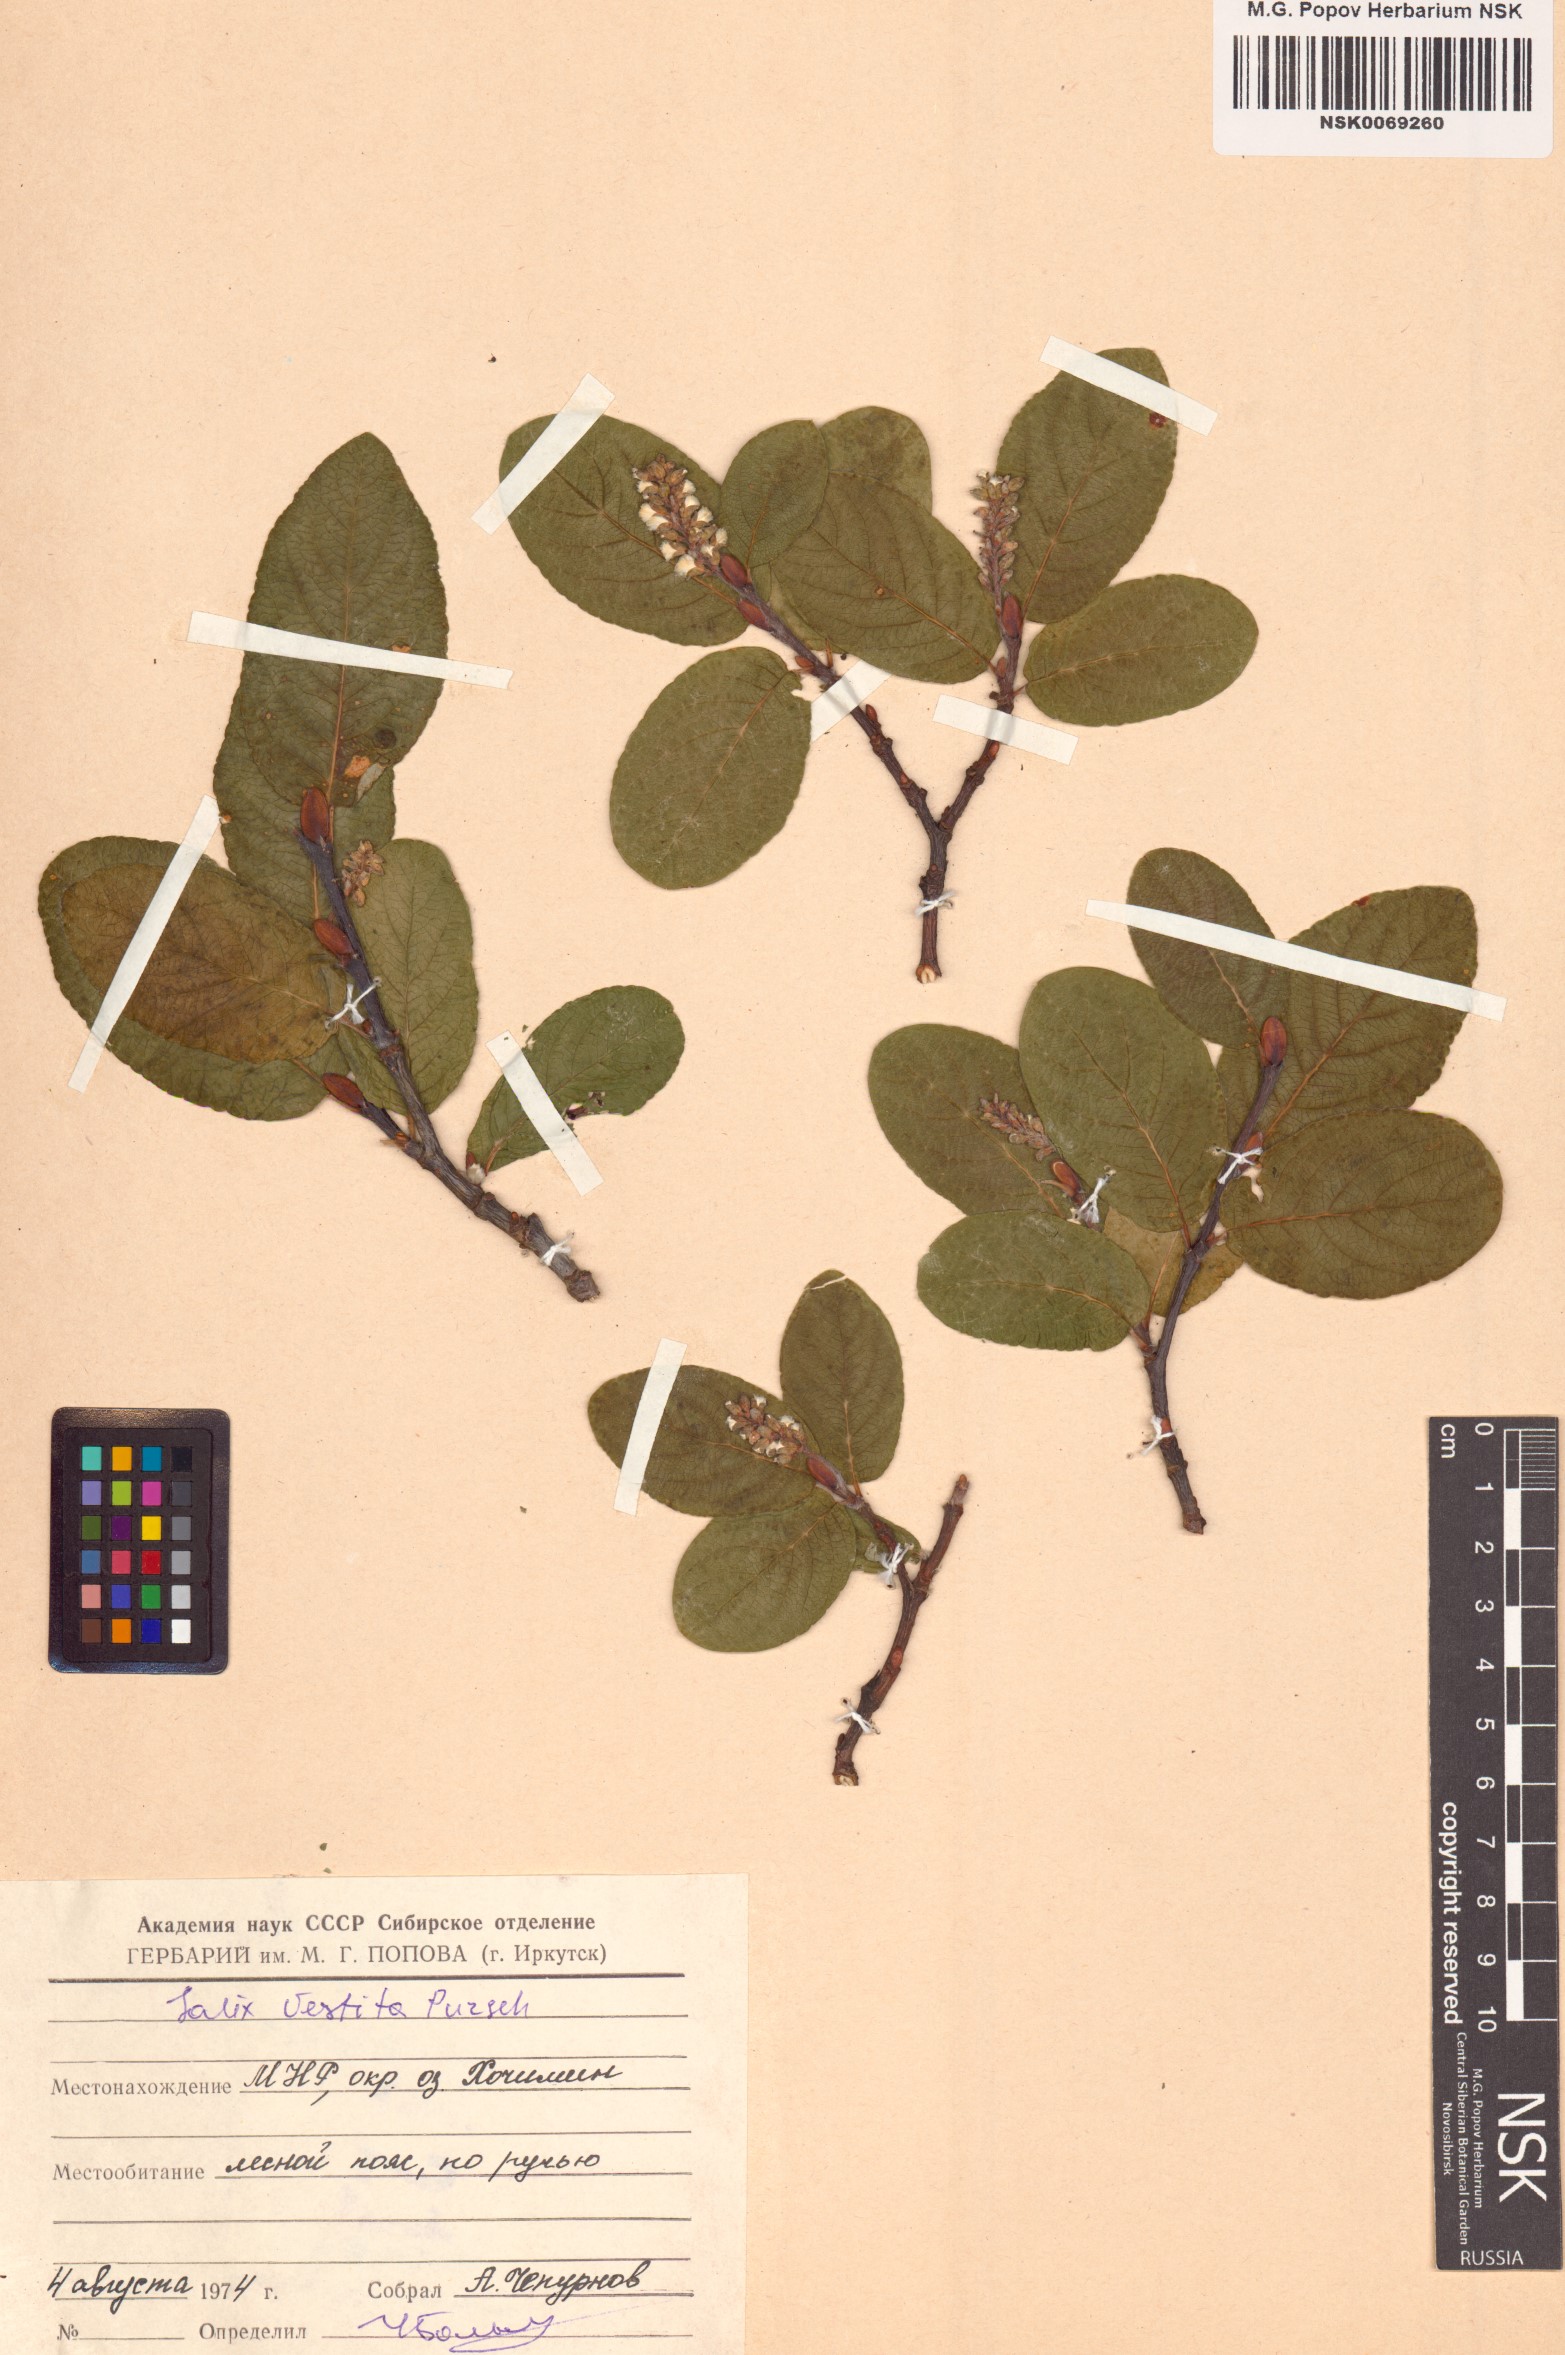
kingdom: Plantae
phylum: Tracheophyta
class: Magnoliopsida
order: Malpighiales
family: Salicaceae
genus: Salix
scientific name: Salix vestita
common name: Hairy willow
